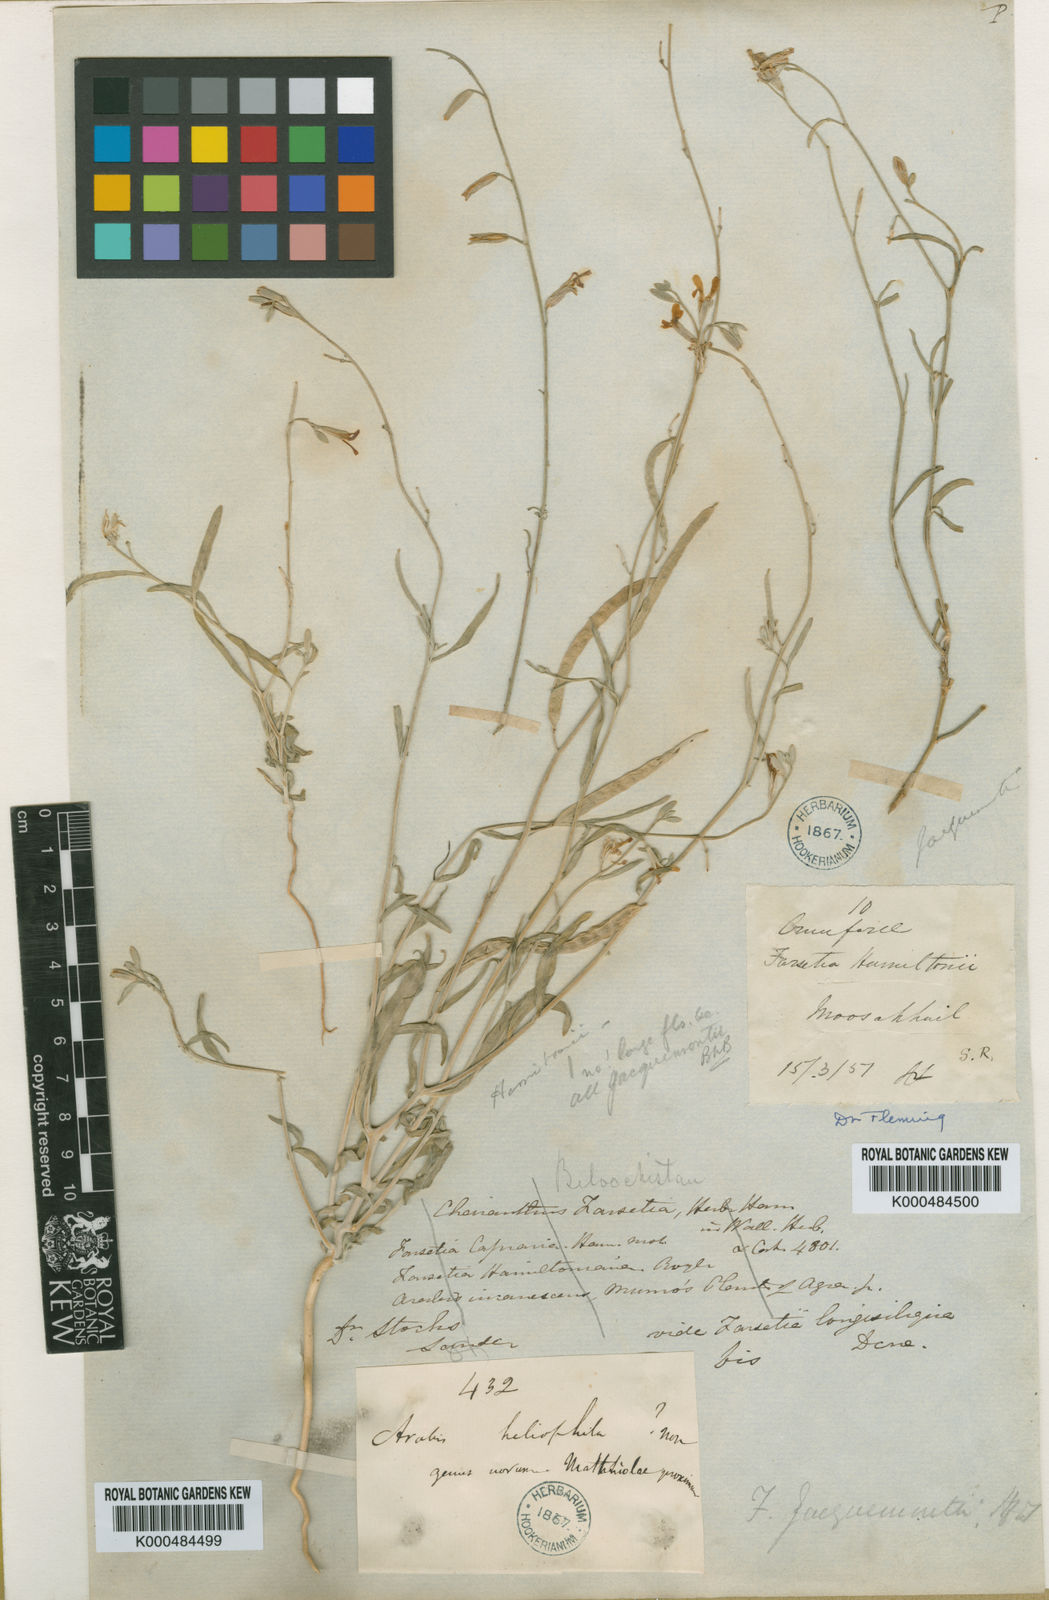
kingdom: Plantae
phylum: Tracheophyta
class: Magnoliopsida
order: Brassicales
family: Brassicaceae
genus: Farsetia
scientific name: Farsetia jacquemontii
